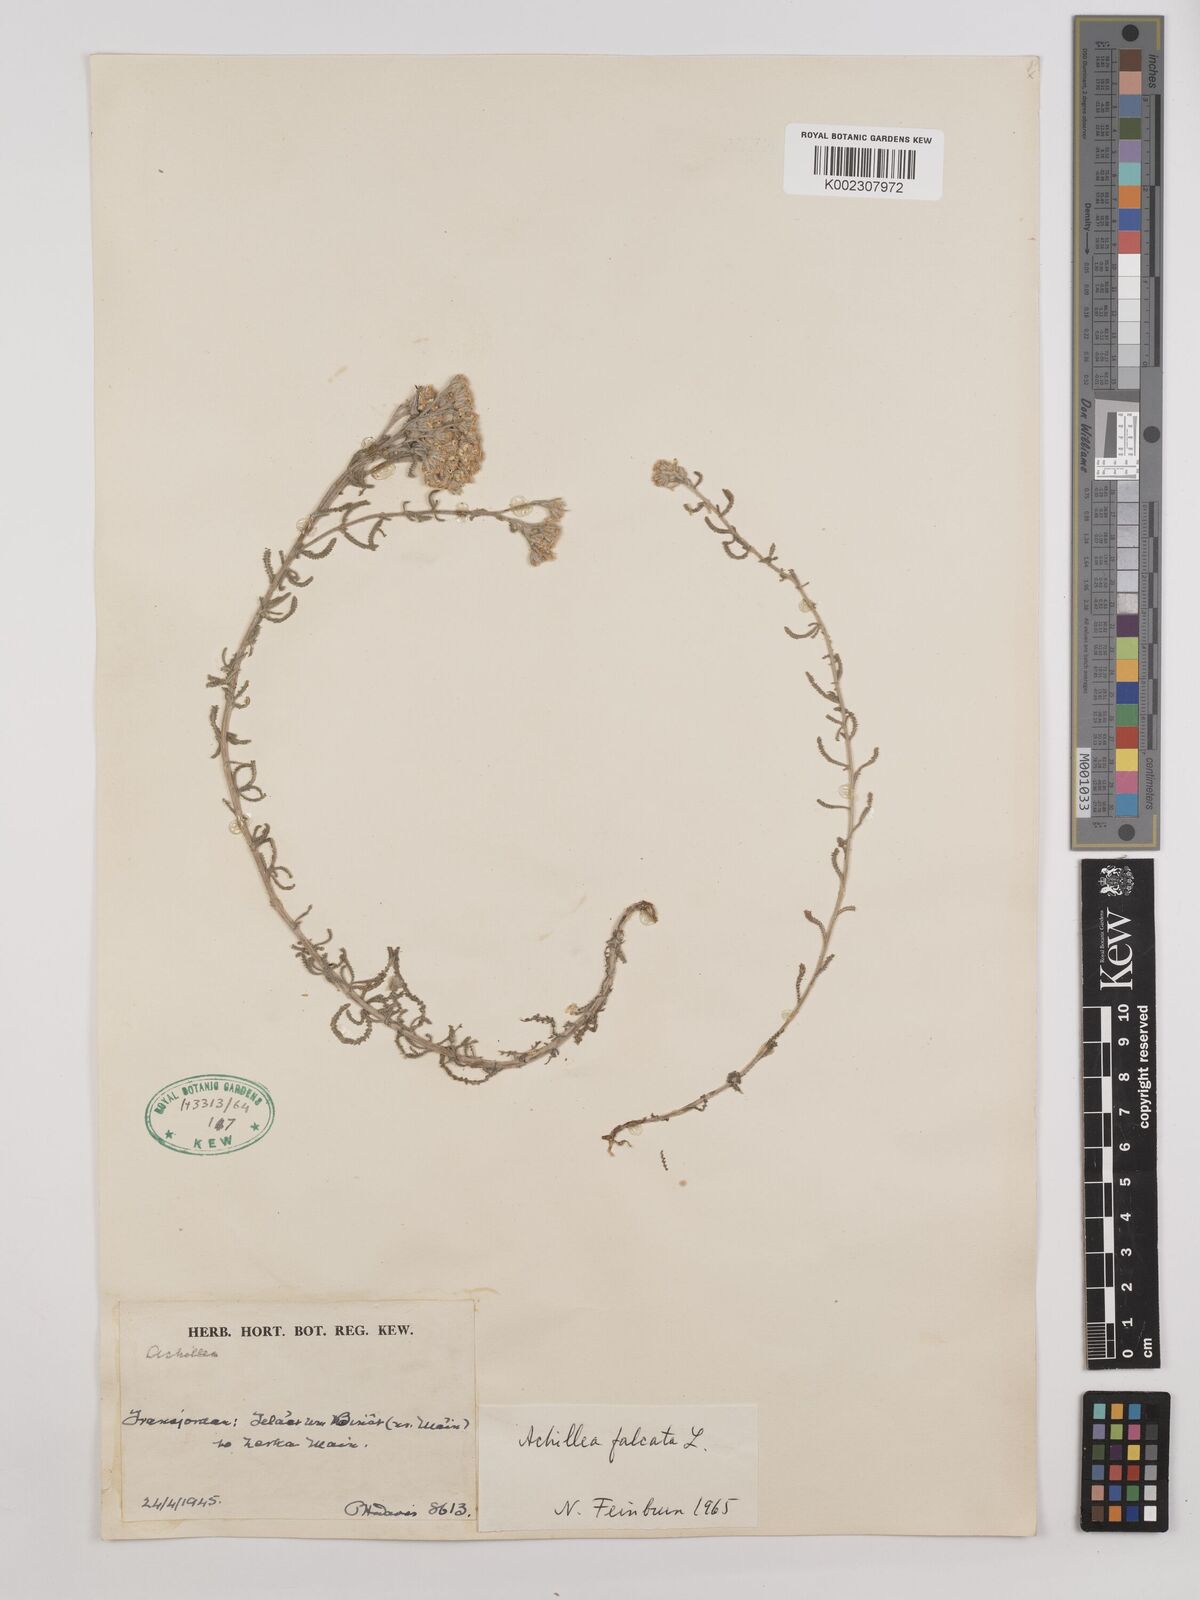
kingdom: Plantae
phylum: Tracheophyta
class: Magnoliopsida
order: Asterales
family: Asteraceae
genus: Achillea
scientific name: Achillea falcata
